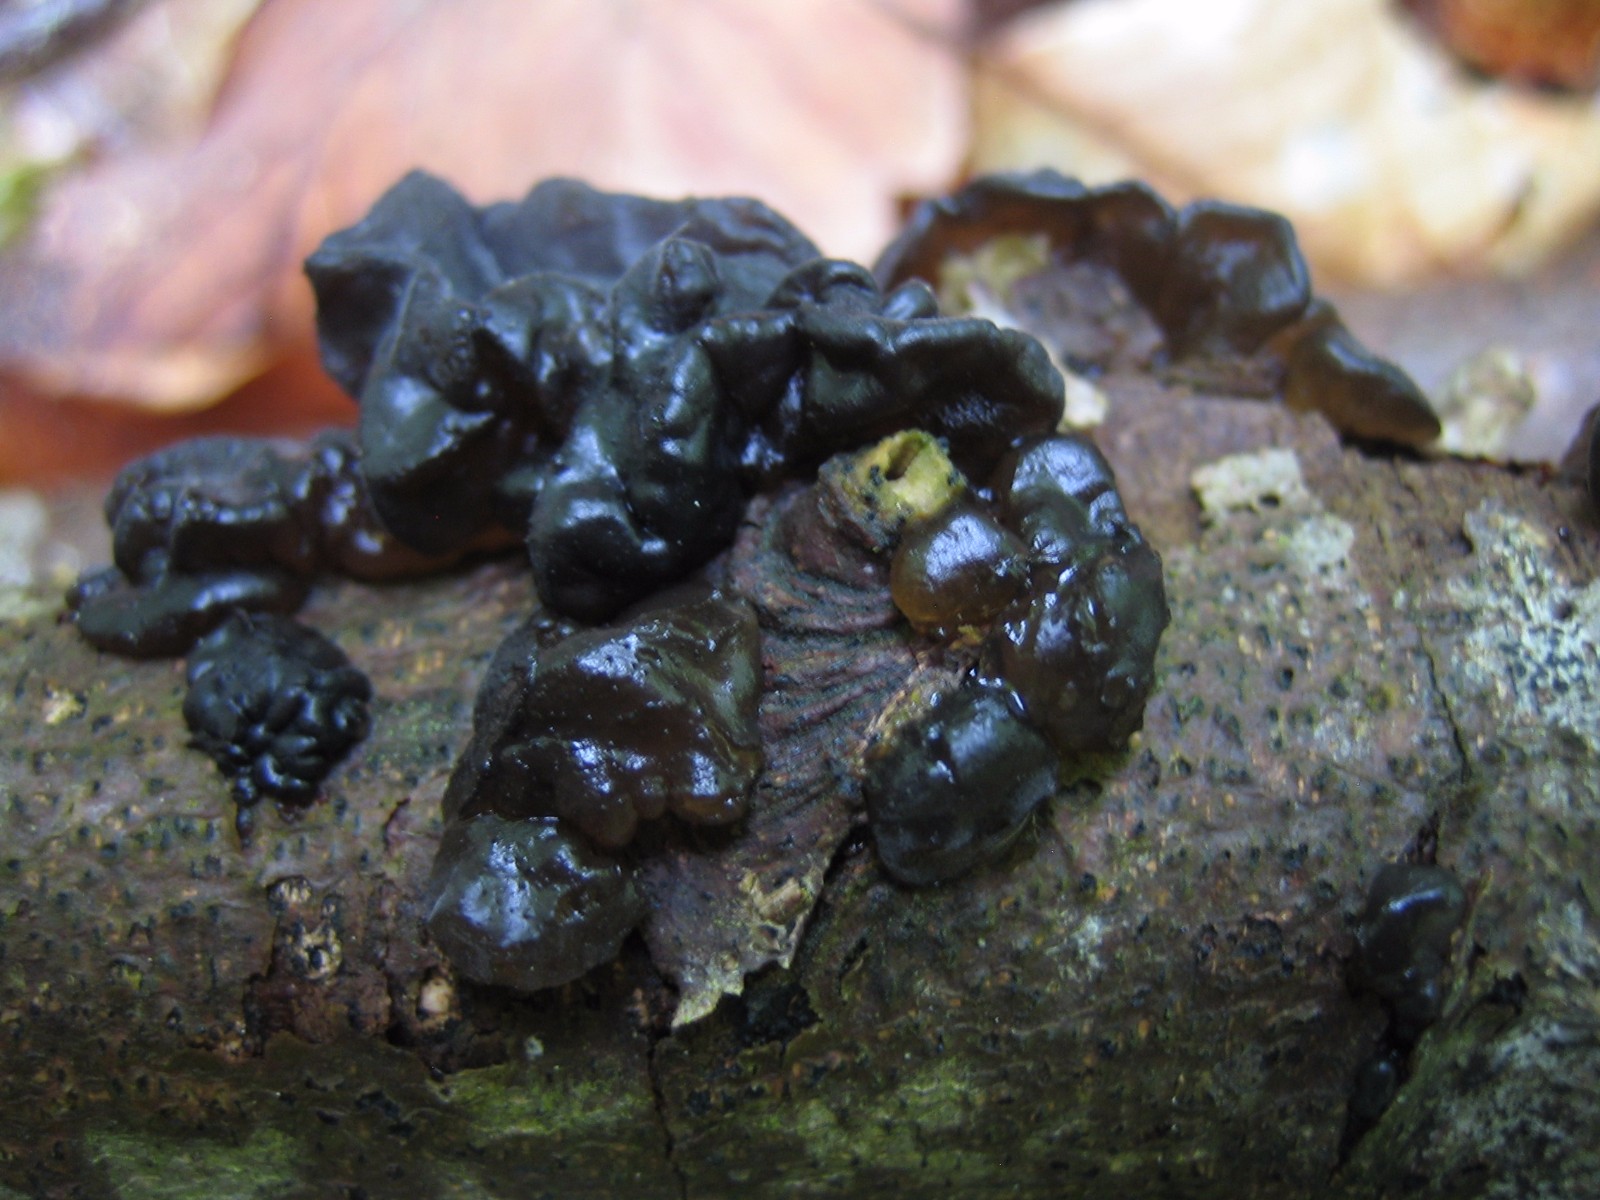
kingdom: Fungi
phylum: Basidiomycota
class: Agaricomycetes
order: Auriculariales
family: Auriculariaceae
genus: Exidia
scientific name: Exidia nigricans
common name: almindelig bævretop
